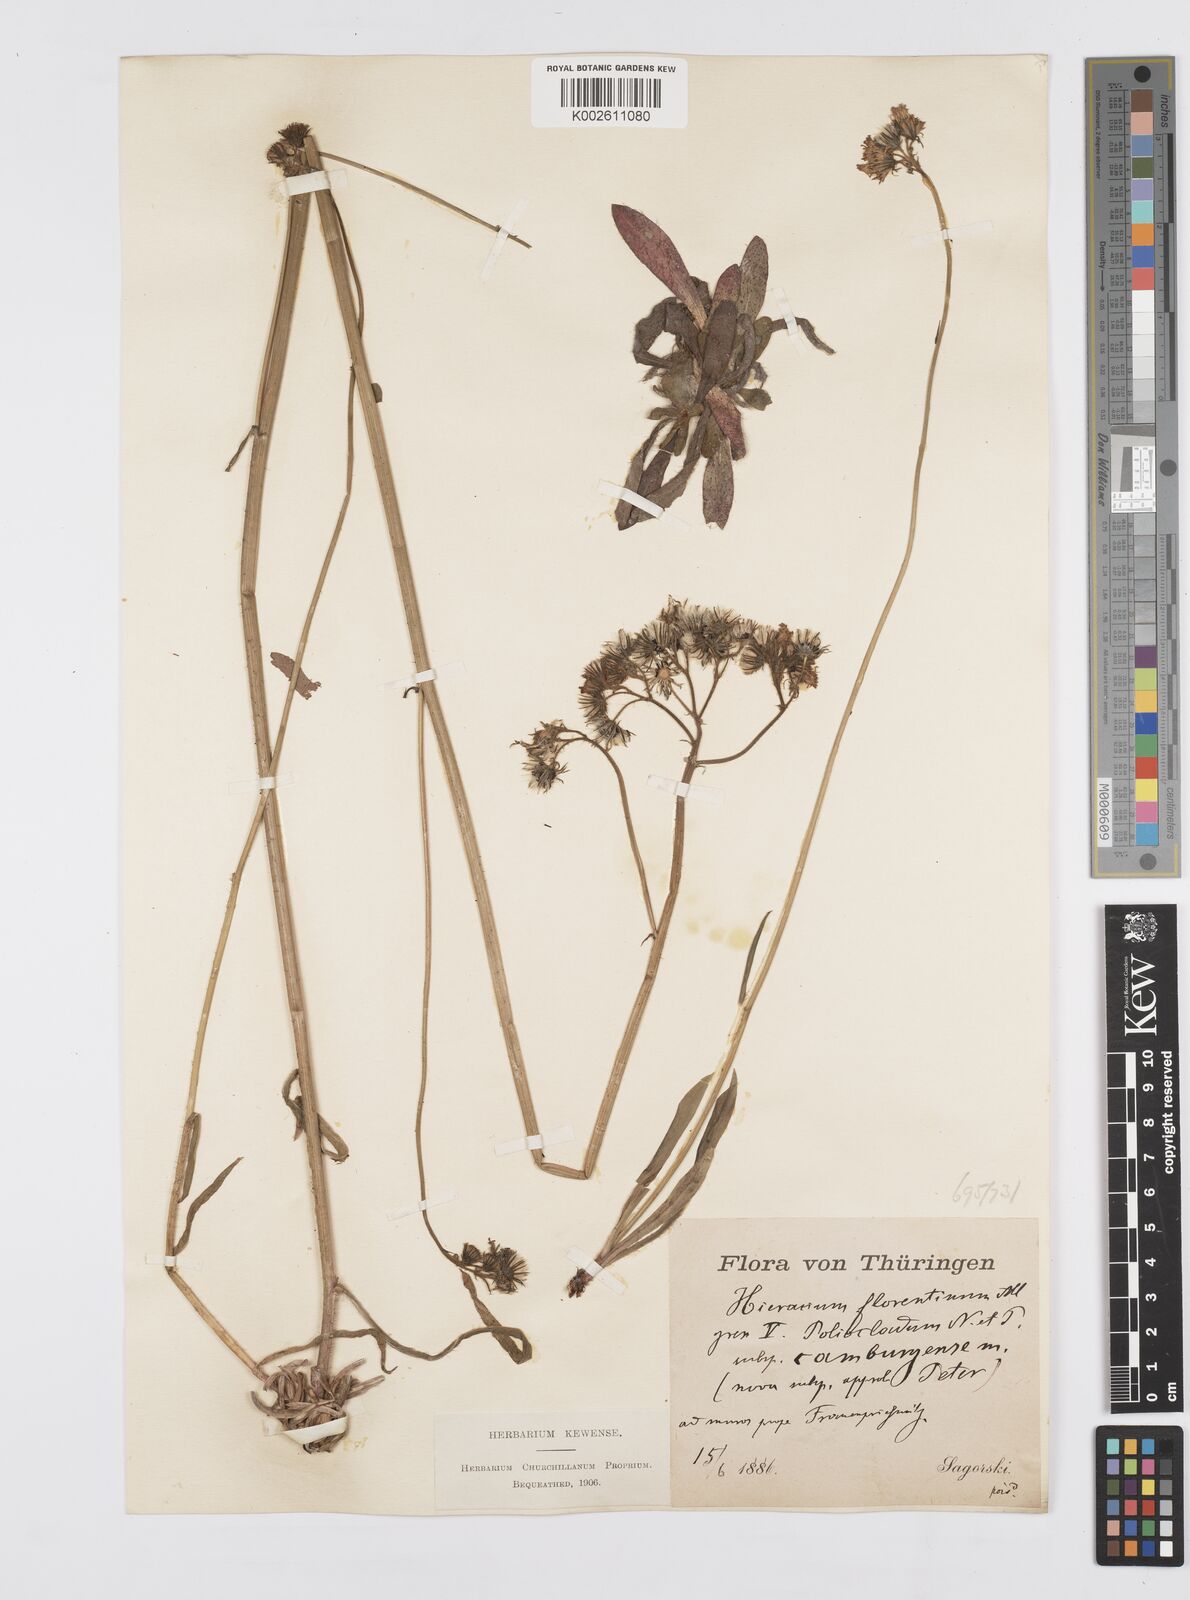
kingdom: Plantae
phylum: Tracheophyta
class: Magnoliopsida
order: Asterales
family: Asteraceae
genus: Pilosella
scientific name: Pilosella piloselloides
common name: Glaucous king-devil
